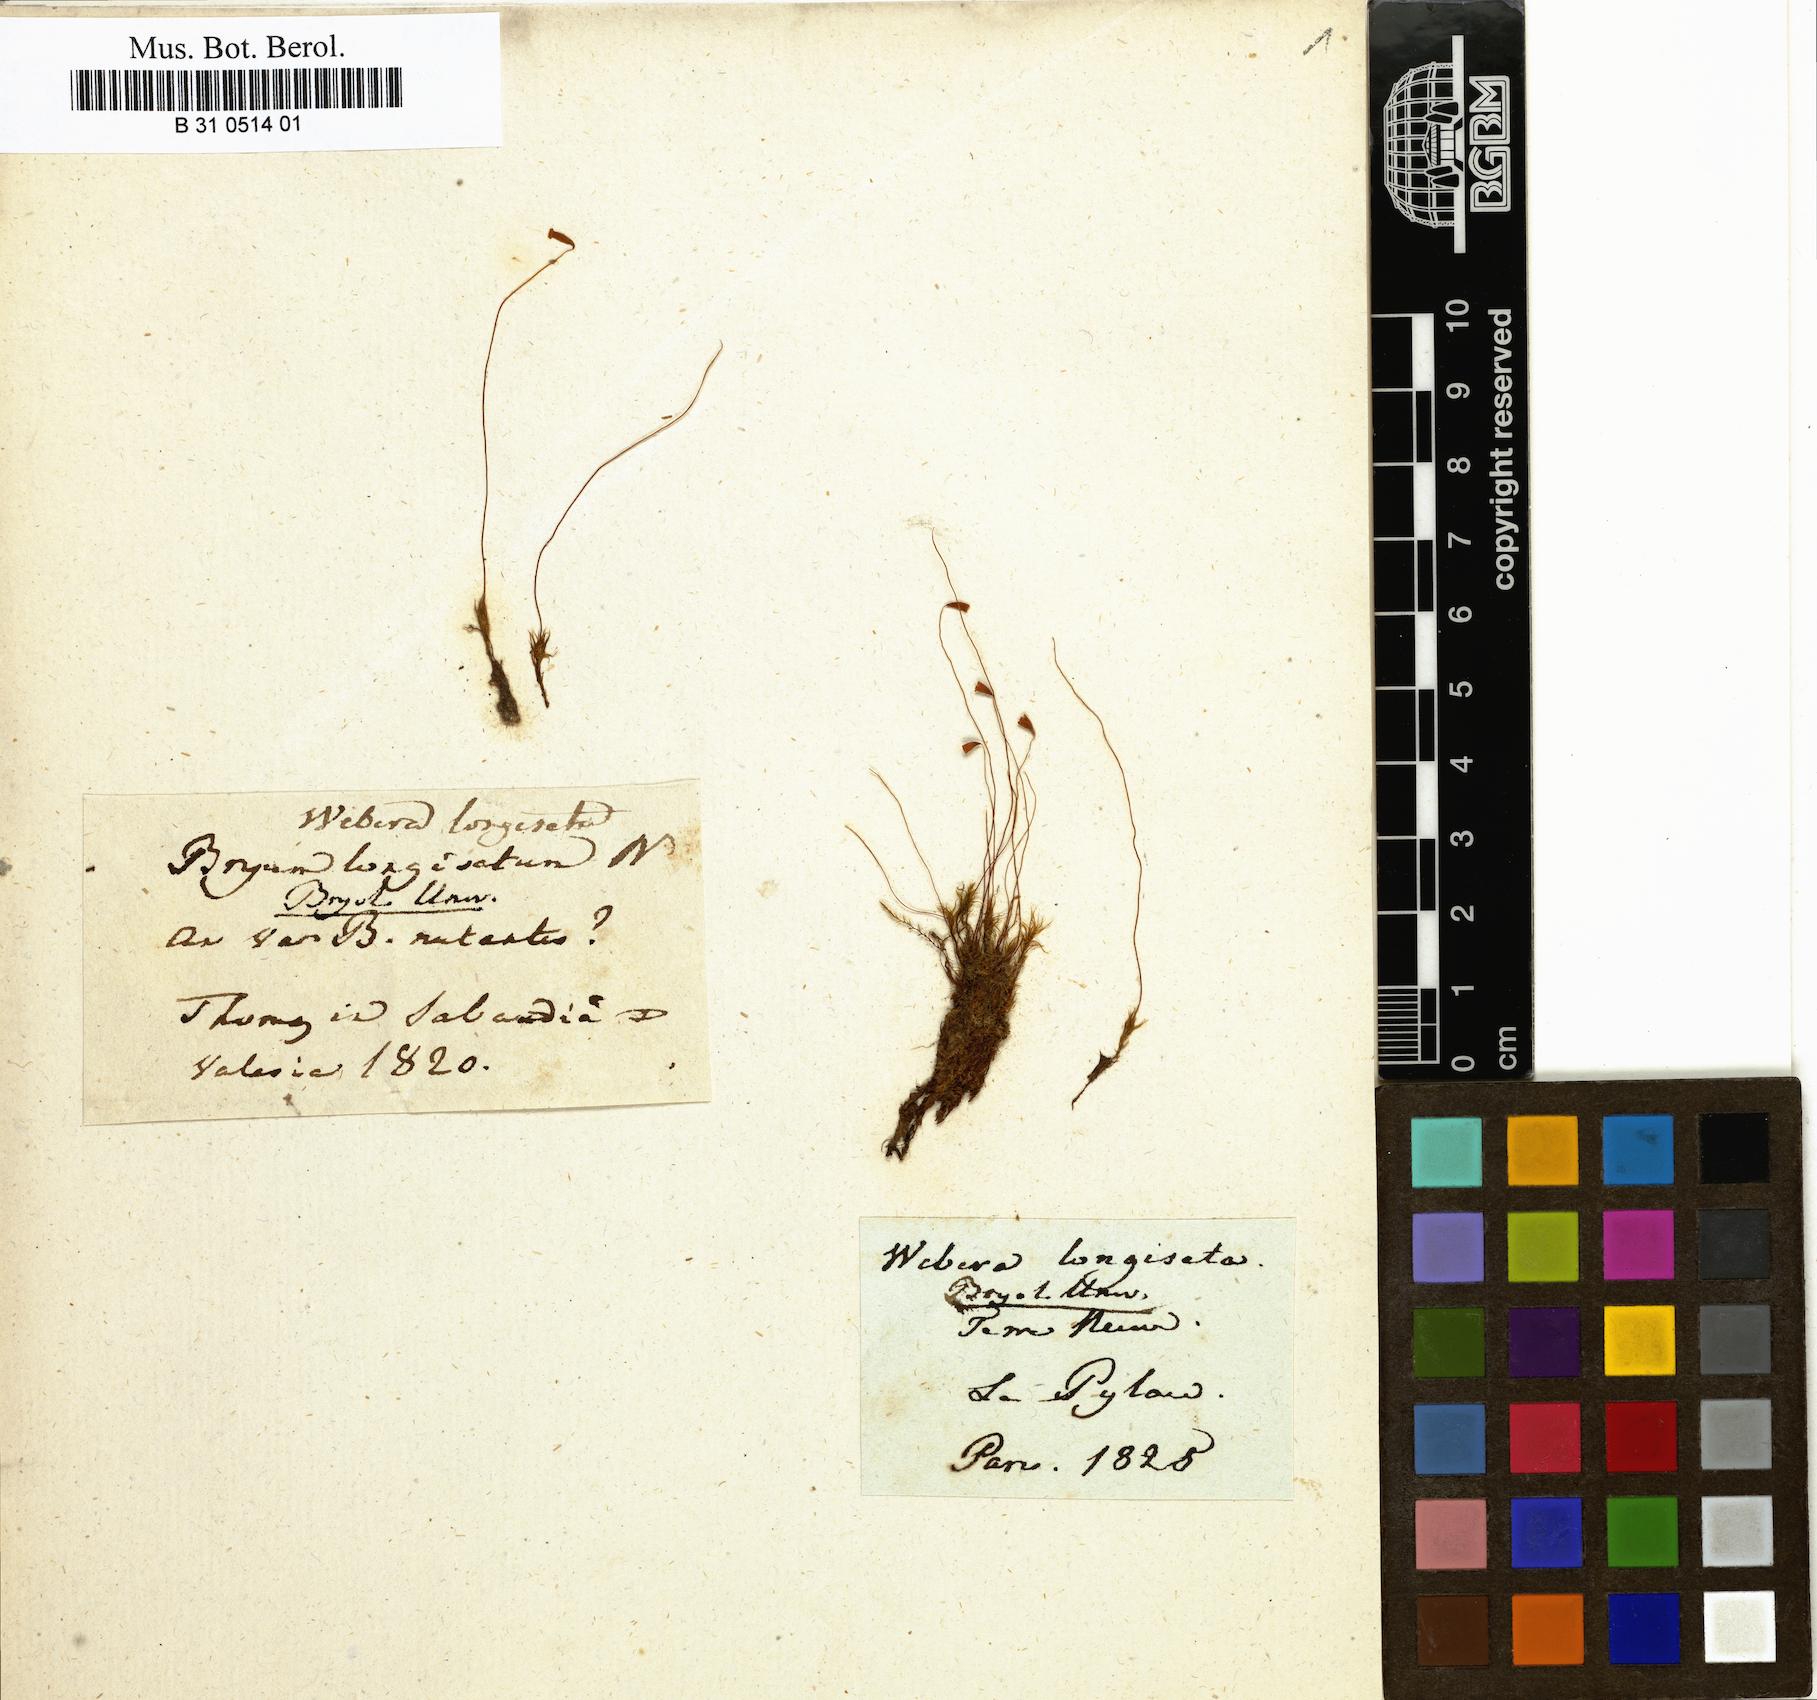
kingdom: Plantae
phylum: Bryophyta
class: Bryopsida
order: Bryales
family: Bryaceae
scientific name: Bryaceae
